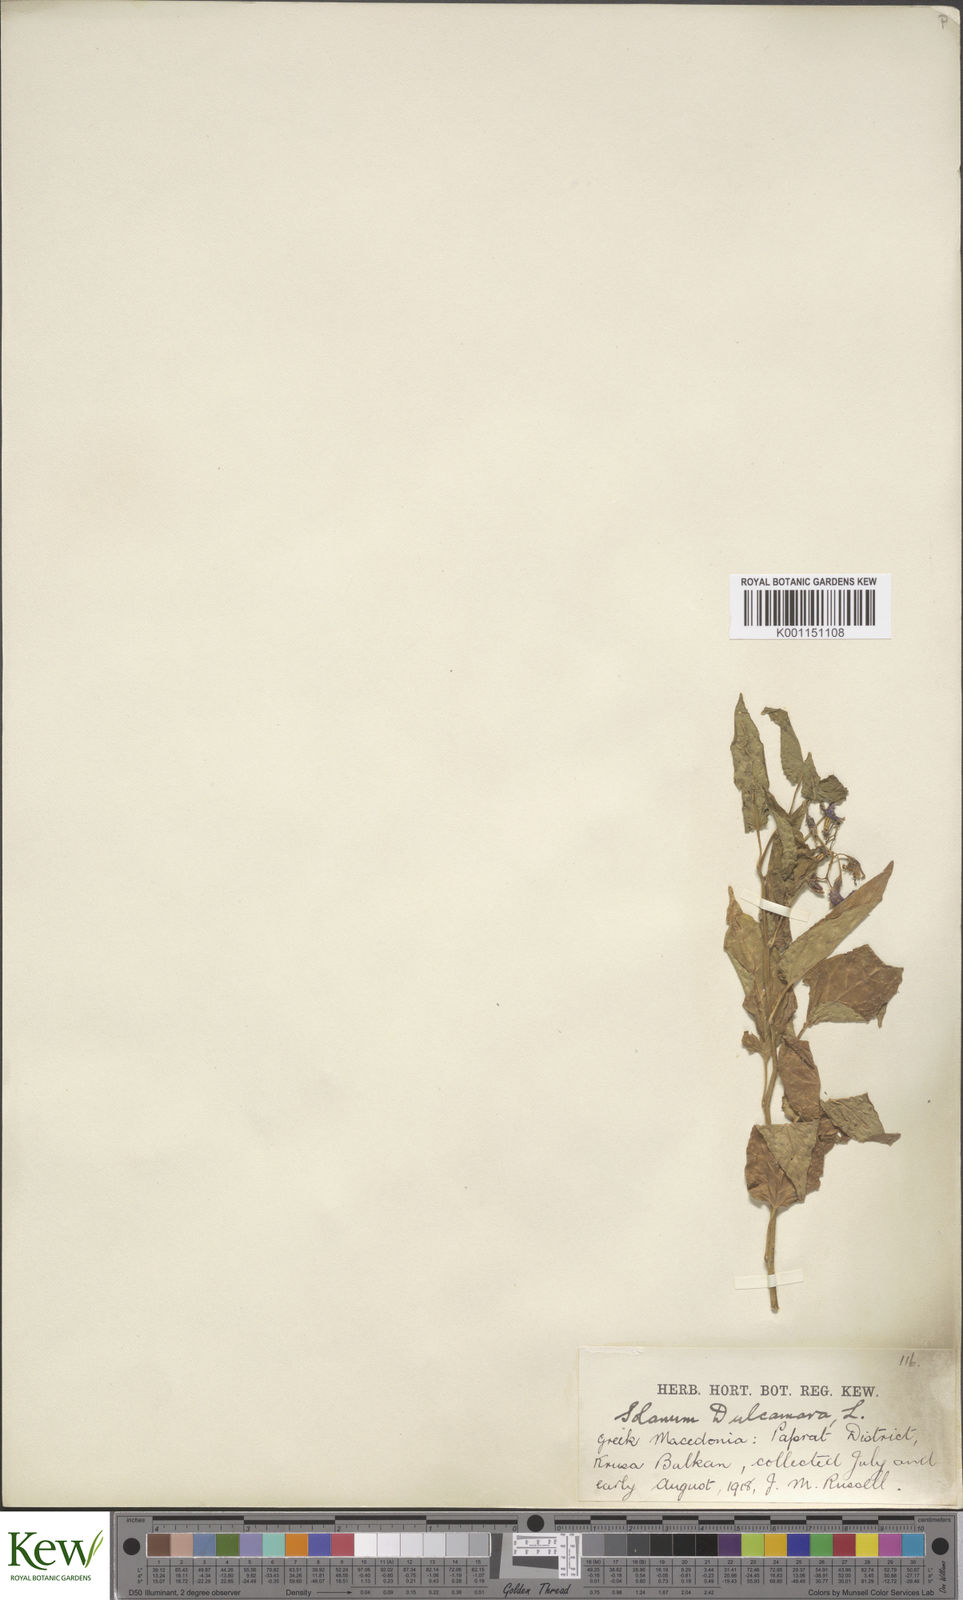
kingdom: Plantae
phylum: Tracheophyta
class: Magnoliopsida
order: Solanales
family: Solanaceae
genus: Solanum
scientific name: Solanum dulcamara
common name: Climbing nightshade
